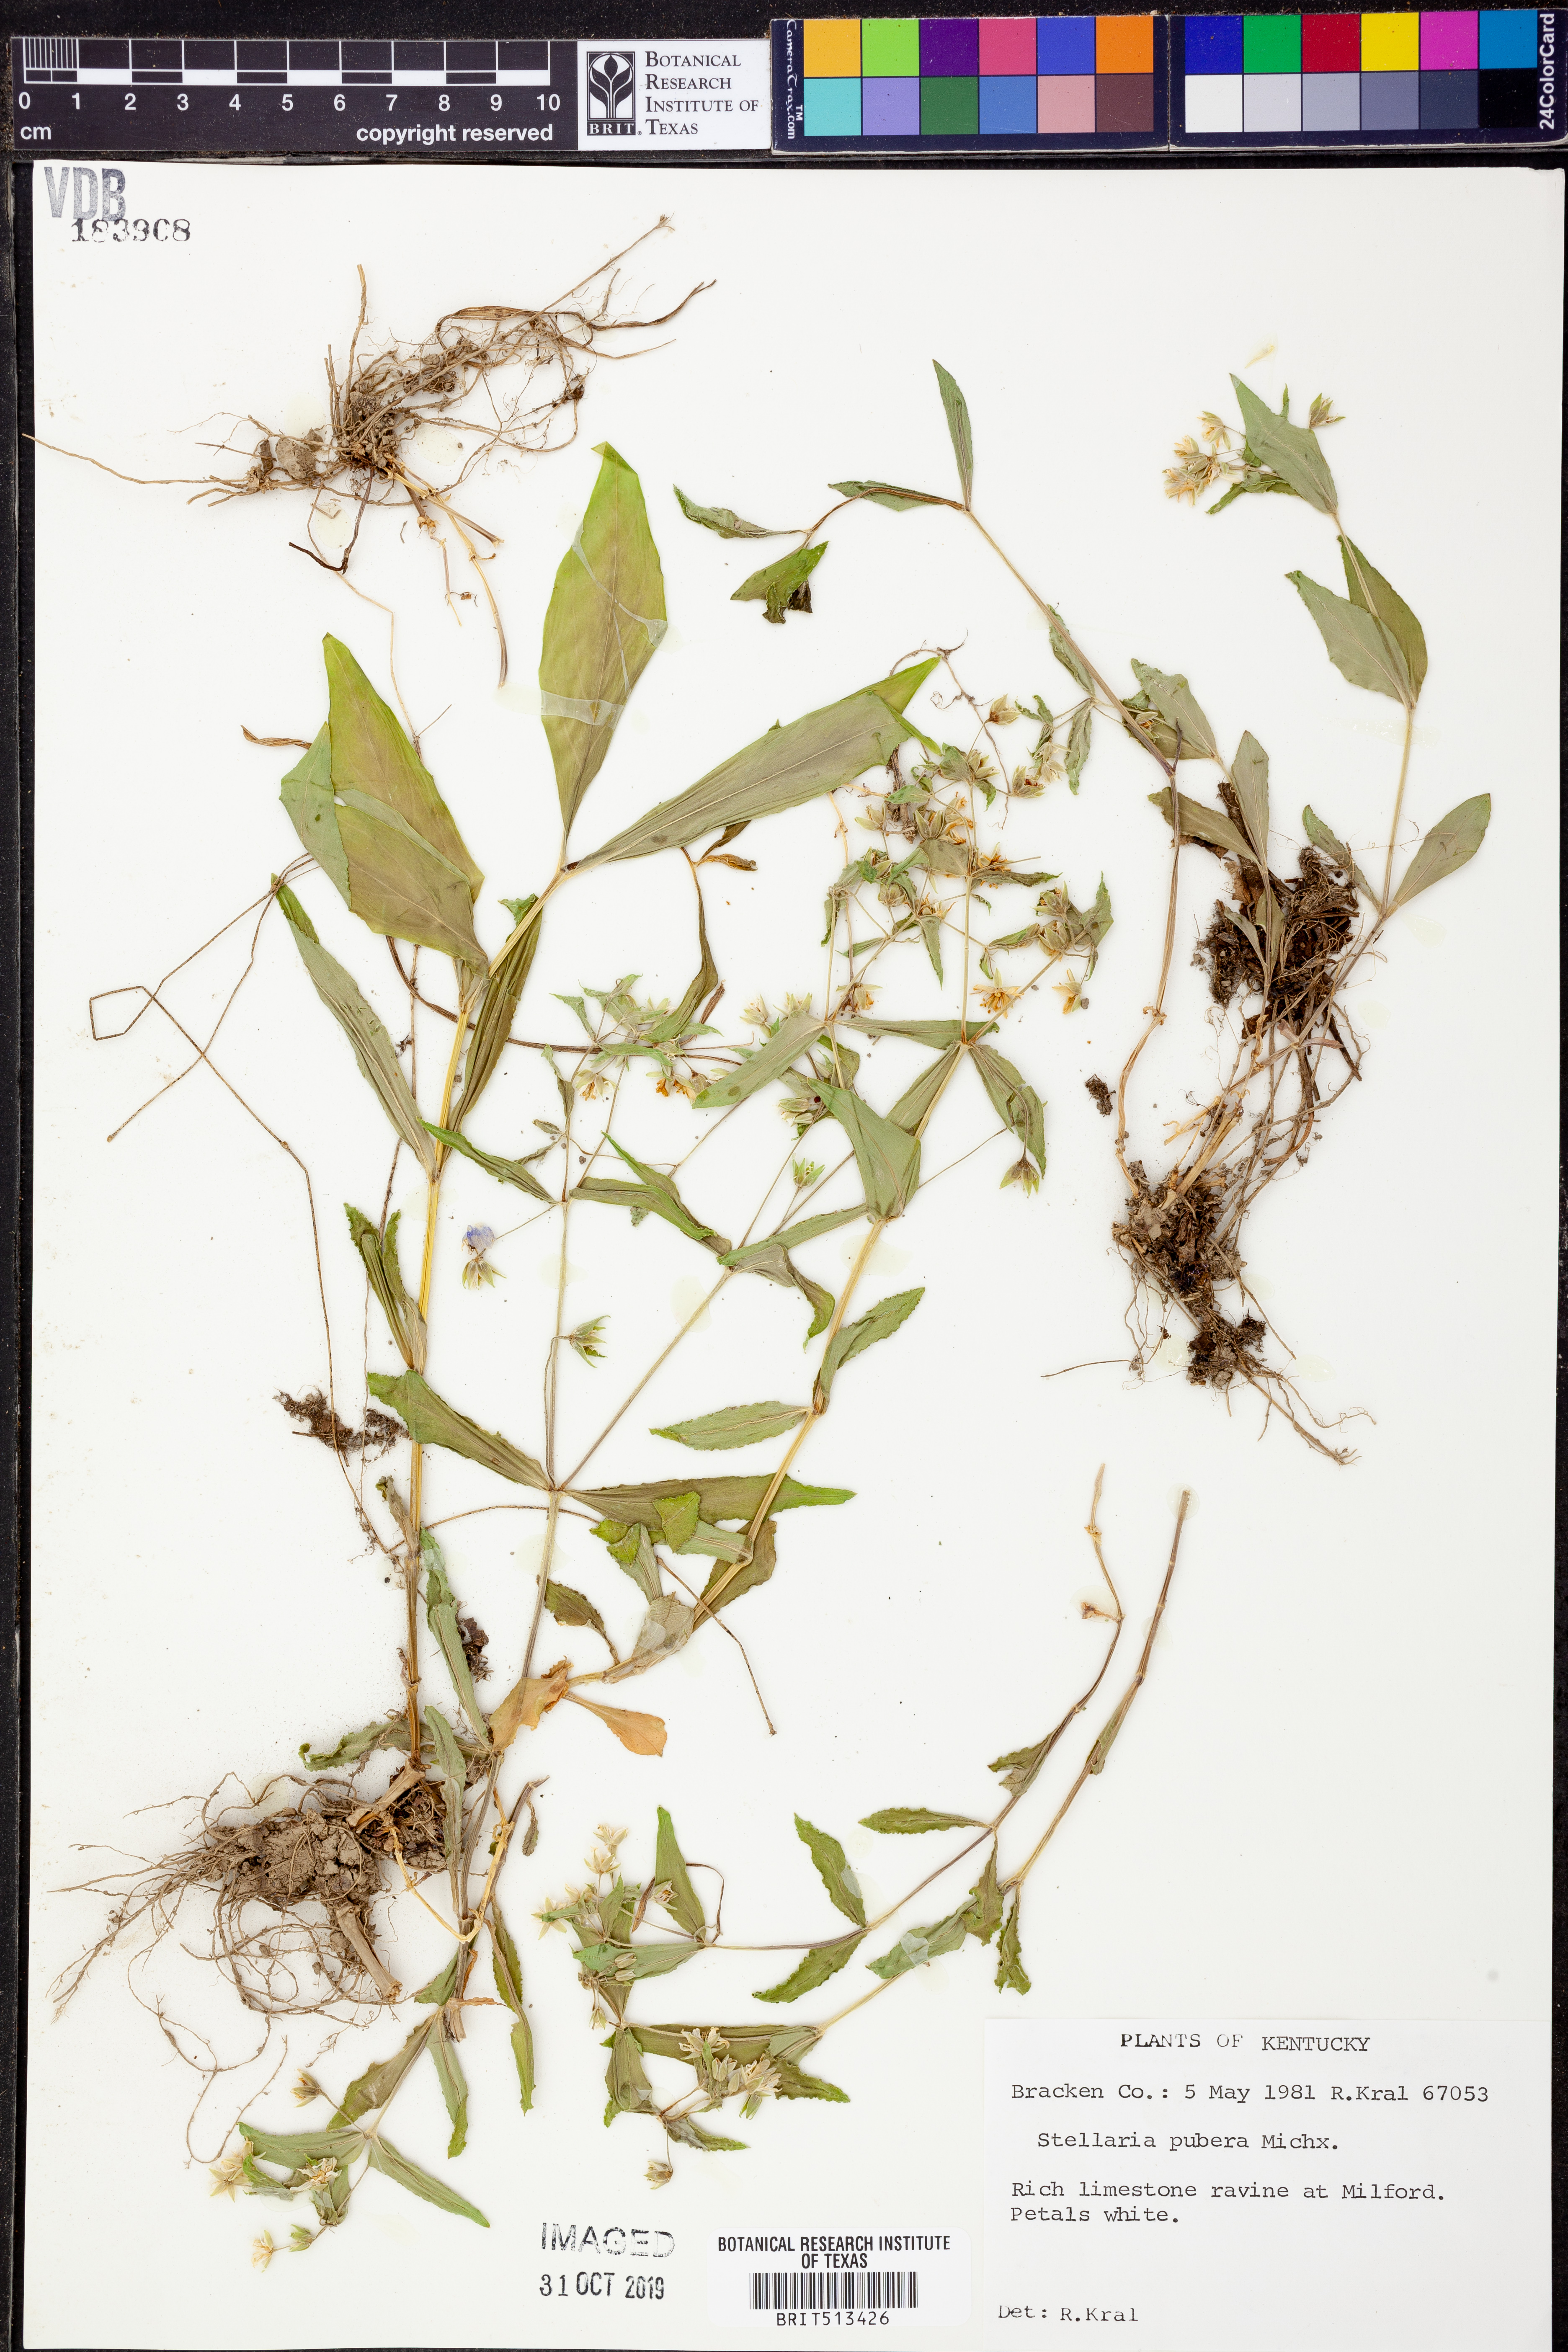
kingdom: Plantae
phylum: Tracheophyta
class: Magnoliopsida
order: Caryophyllales
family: Caryophyllaceae
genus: Stellaria
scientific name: Stellaria pubera
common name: Star chickweed
